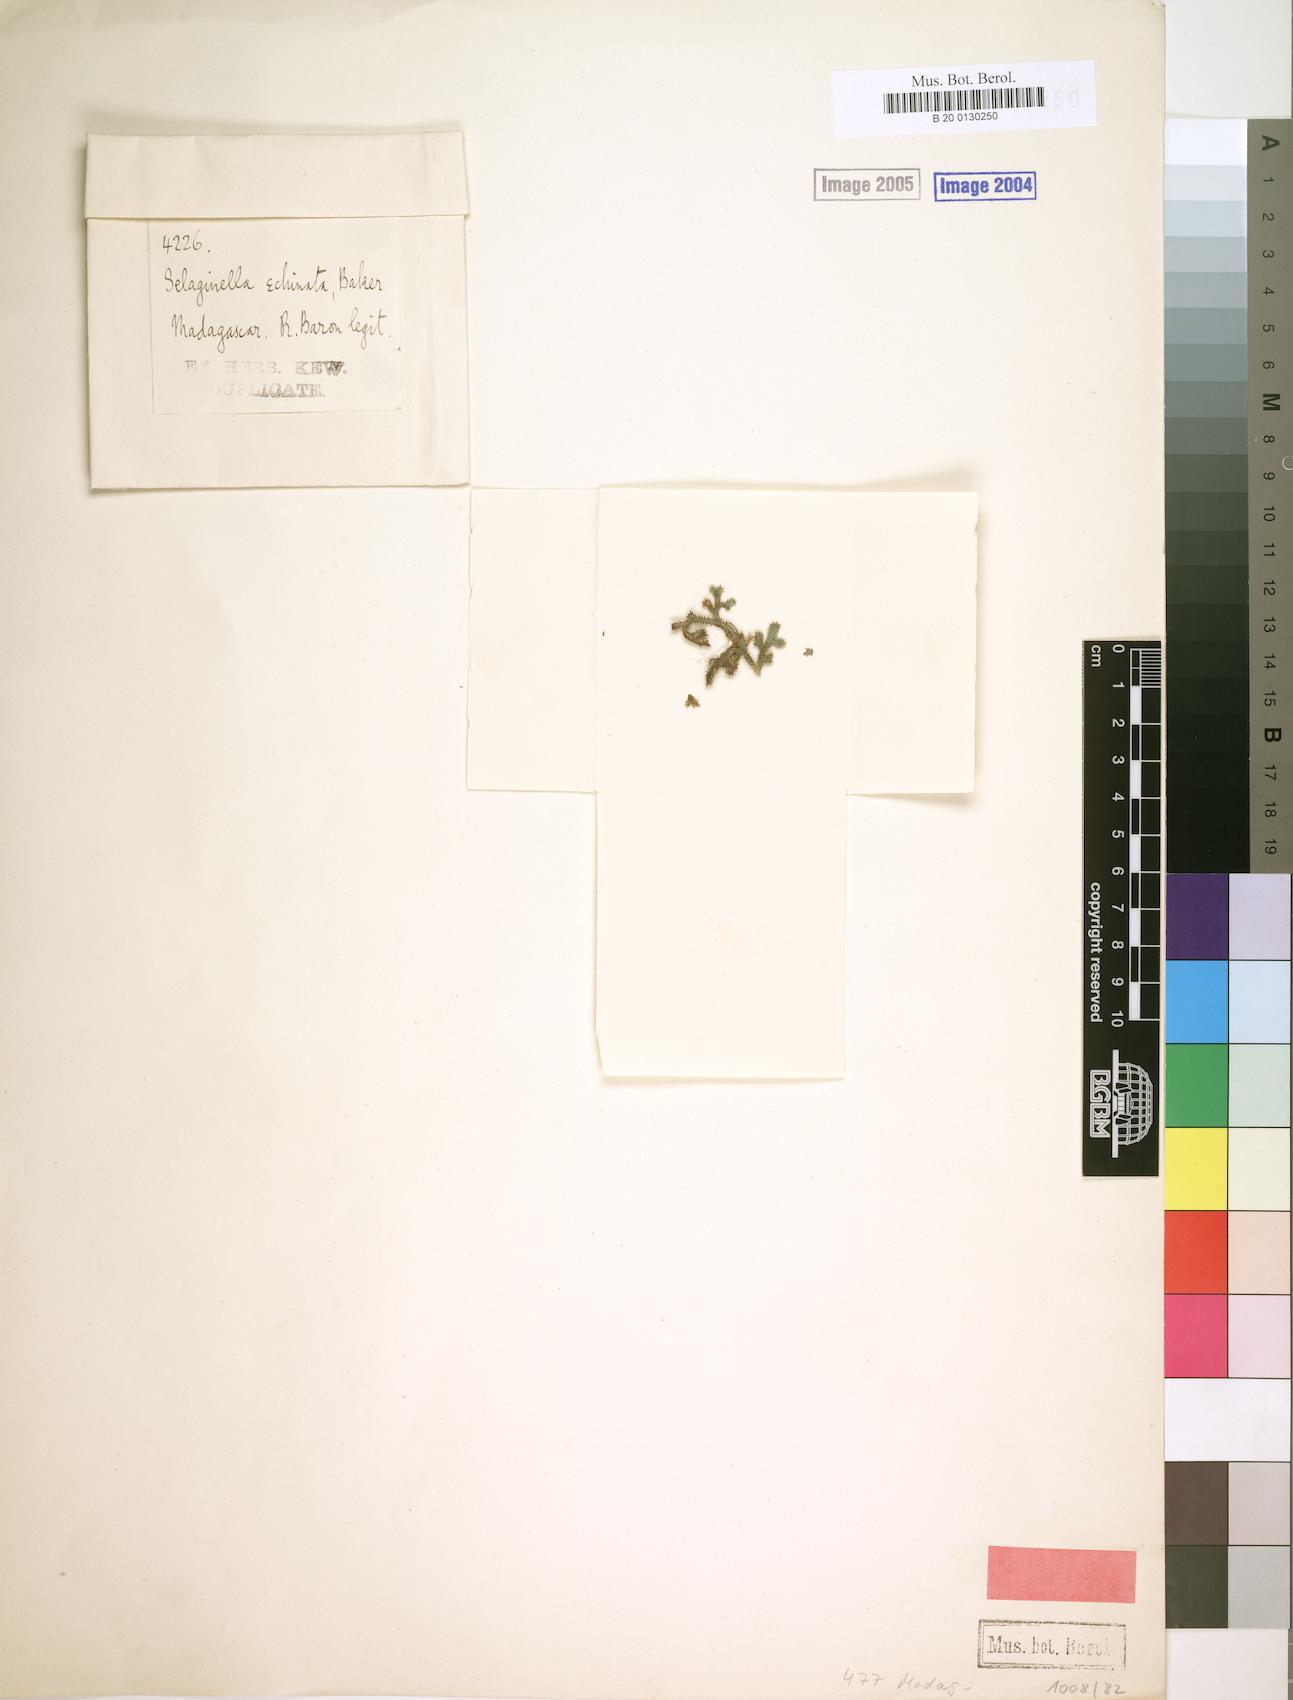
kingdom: Plantae
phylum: Tracheophyta
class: Lycopodiopsida
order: Selaginellales
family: Selaginellaceae
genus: Selaginella
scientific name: Selaginella echinata
